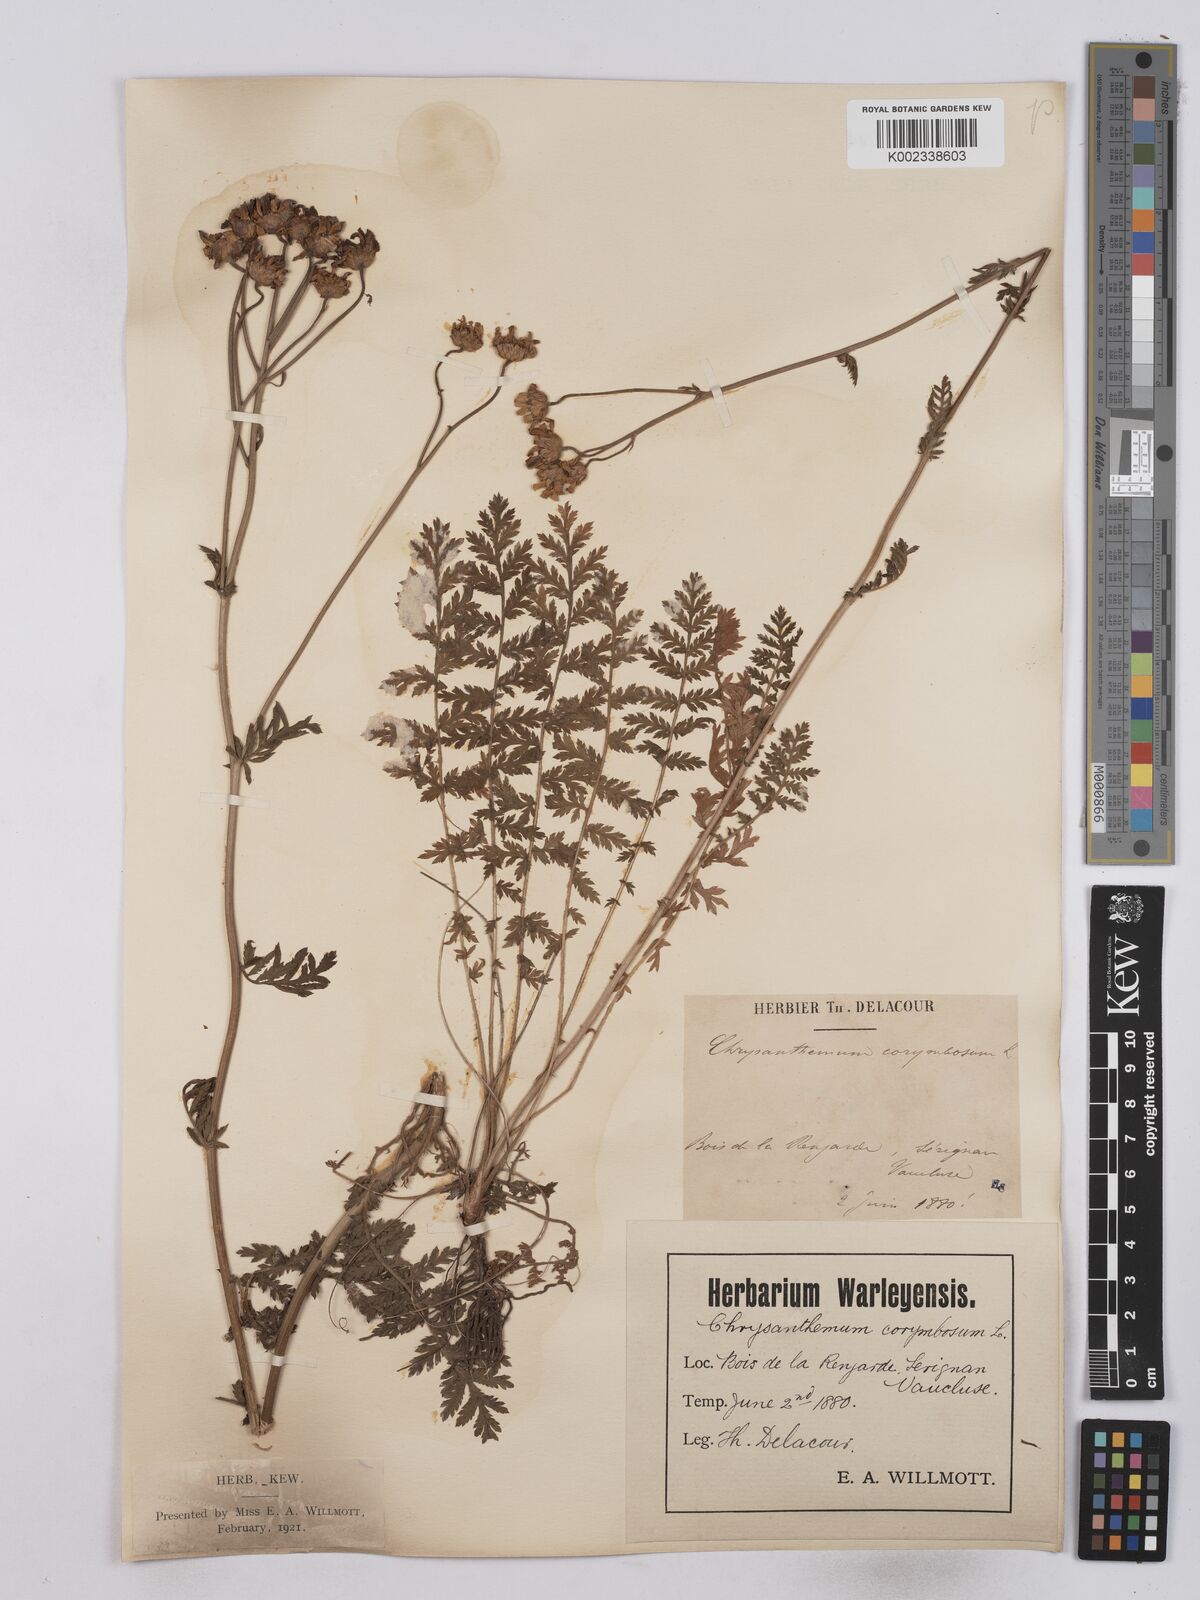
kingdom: Plantae
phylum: Tracheophyta
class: Magnoliopsida
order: Asterales
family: Asteraceae
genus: Tanacetum
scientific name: Tanacetum corymbosum
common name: Scentless feverfew
